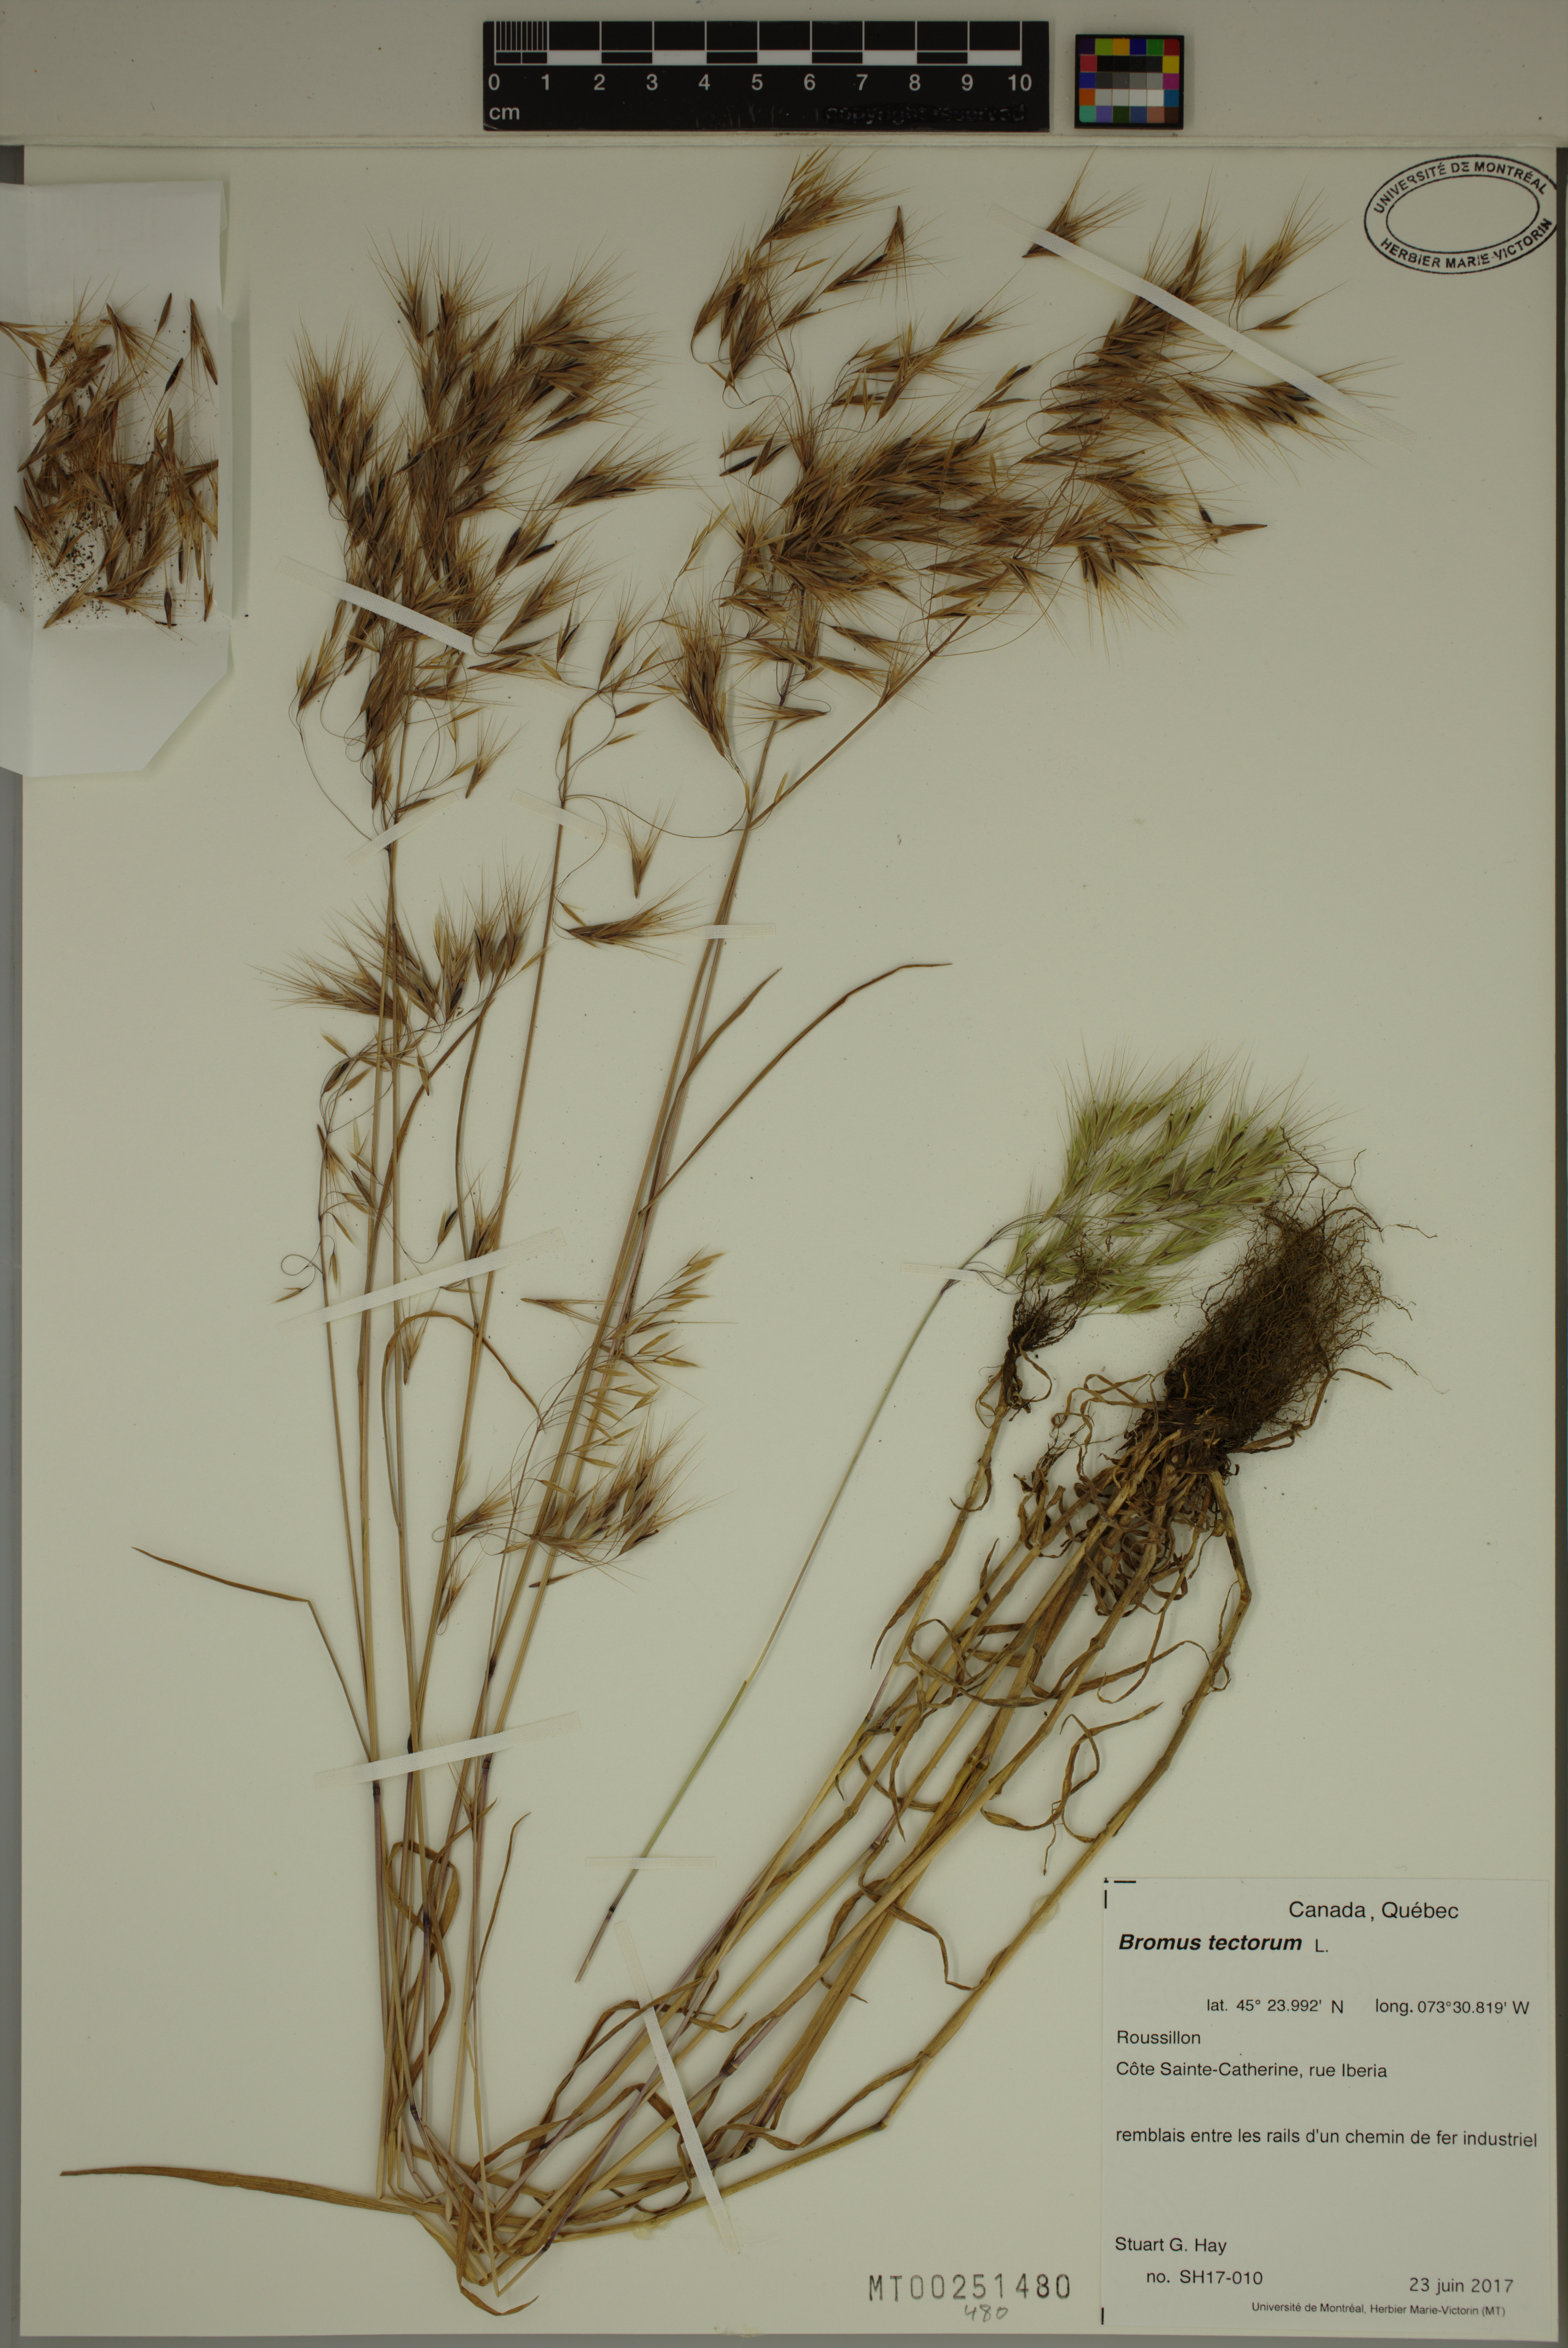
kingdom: Plantae
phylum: Tracheophyta
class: Liliopsida
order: Poales
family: Poaceae
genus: Bromus
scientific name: Bromus tectorum
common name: Cheatgrass
